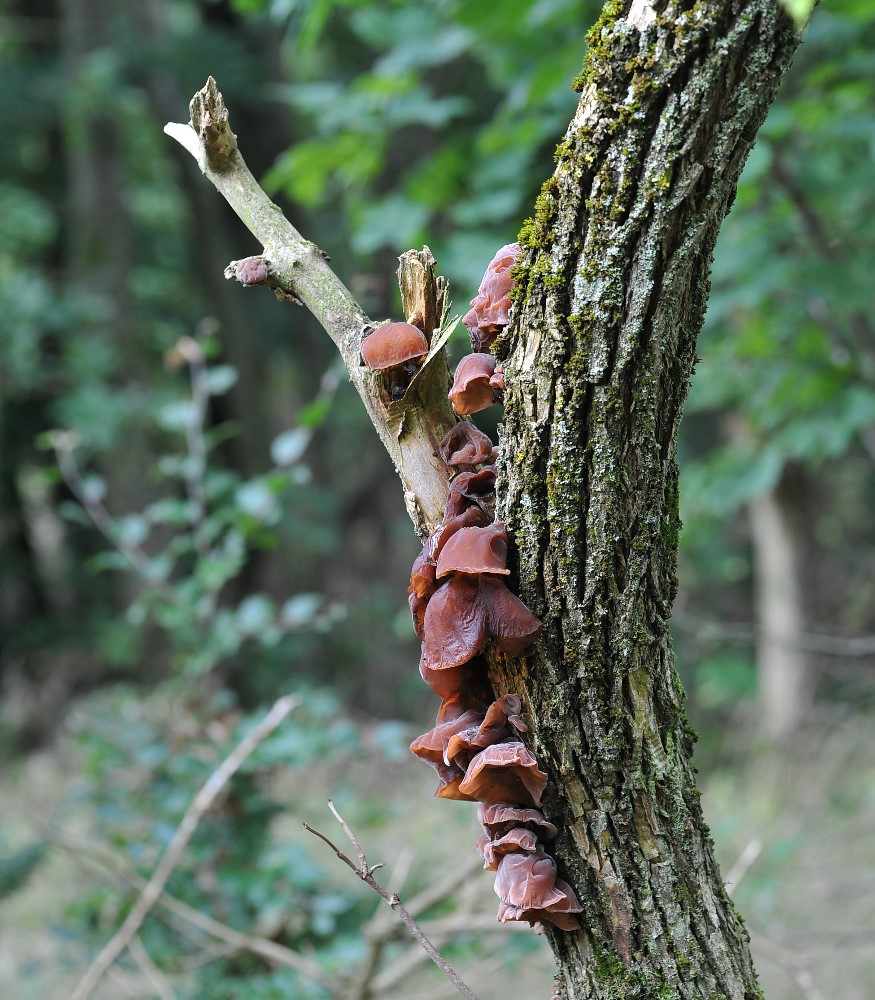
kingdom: Fungi
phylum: Basidiomycota
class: Agaricomycetes
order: Auriculariales
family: Auriculariaceae
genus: Auricularia
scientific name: Auricularia auricula-judae
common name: almindelig judasøre
